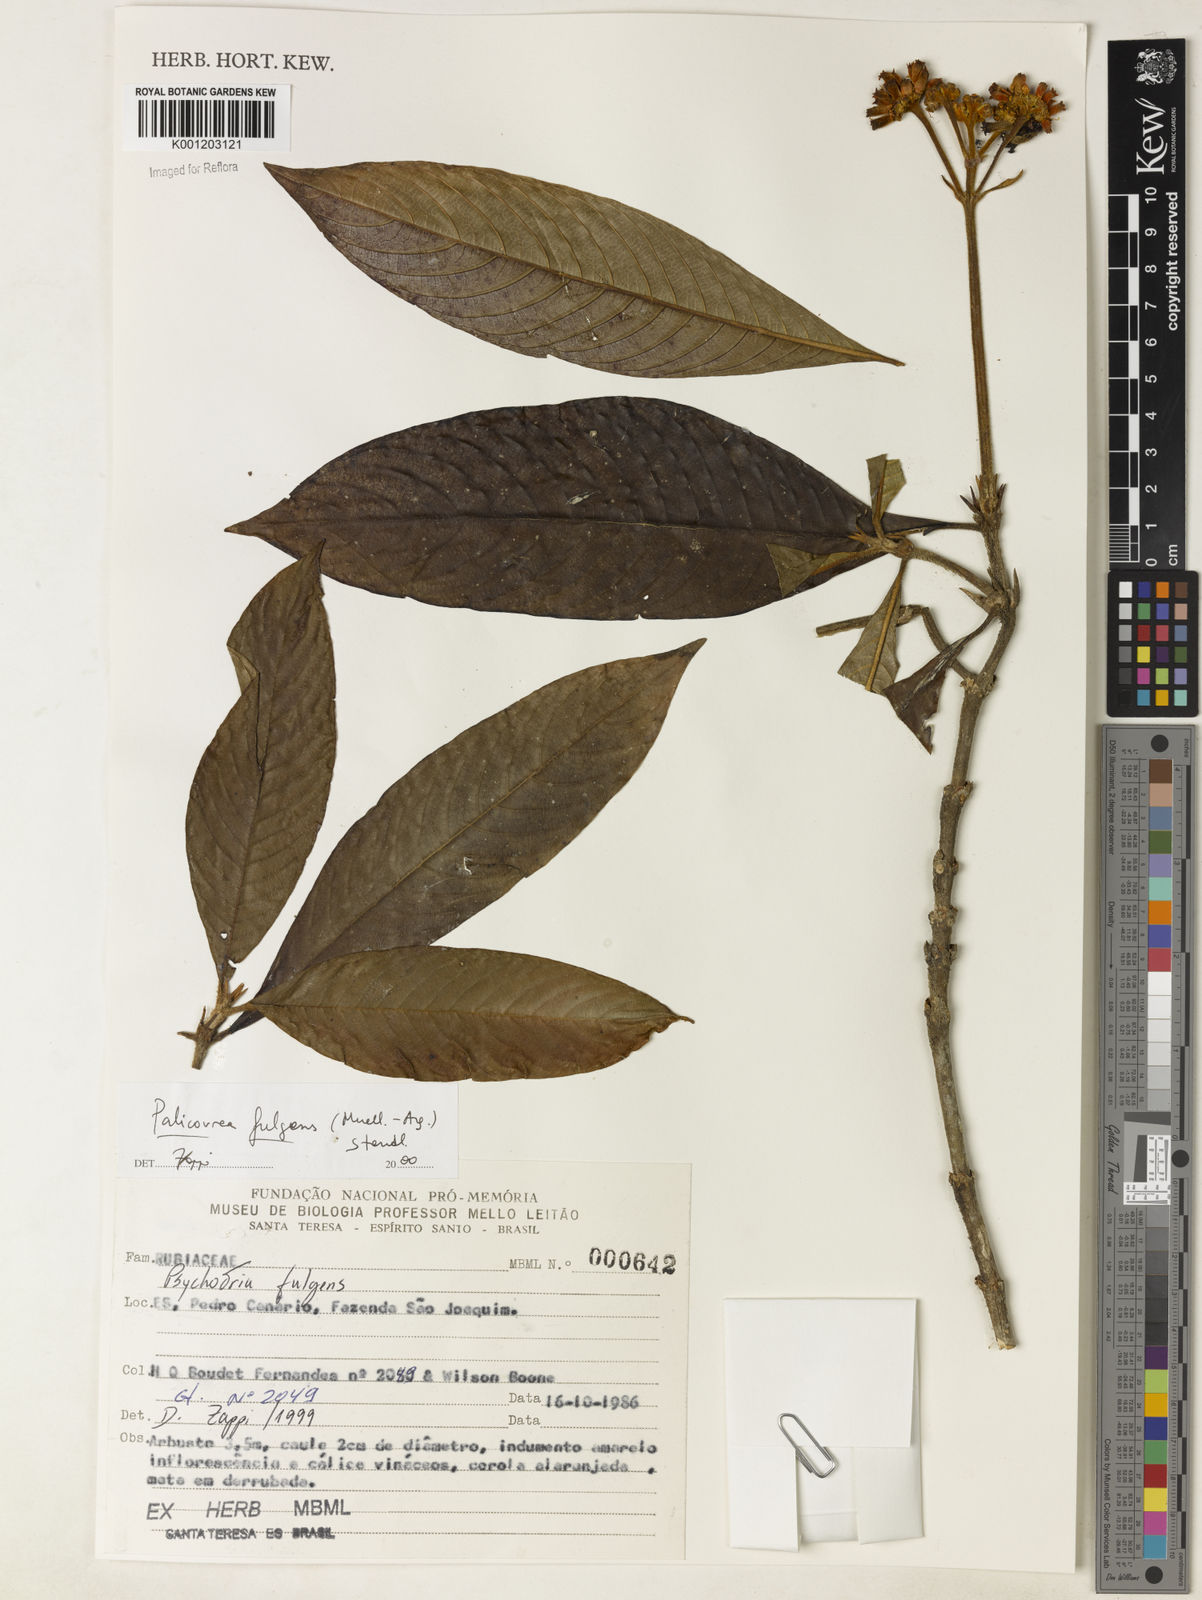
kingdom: Plantae
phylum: Tracheophyta
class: Magnoliopsida
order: Gentianales
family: Rubiaceae
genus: Palicourea
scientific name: Palicourea
